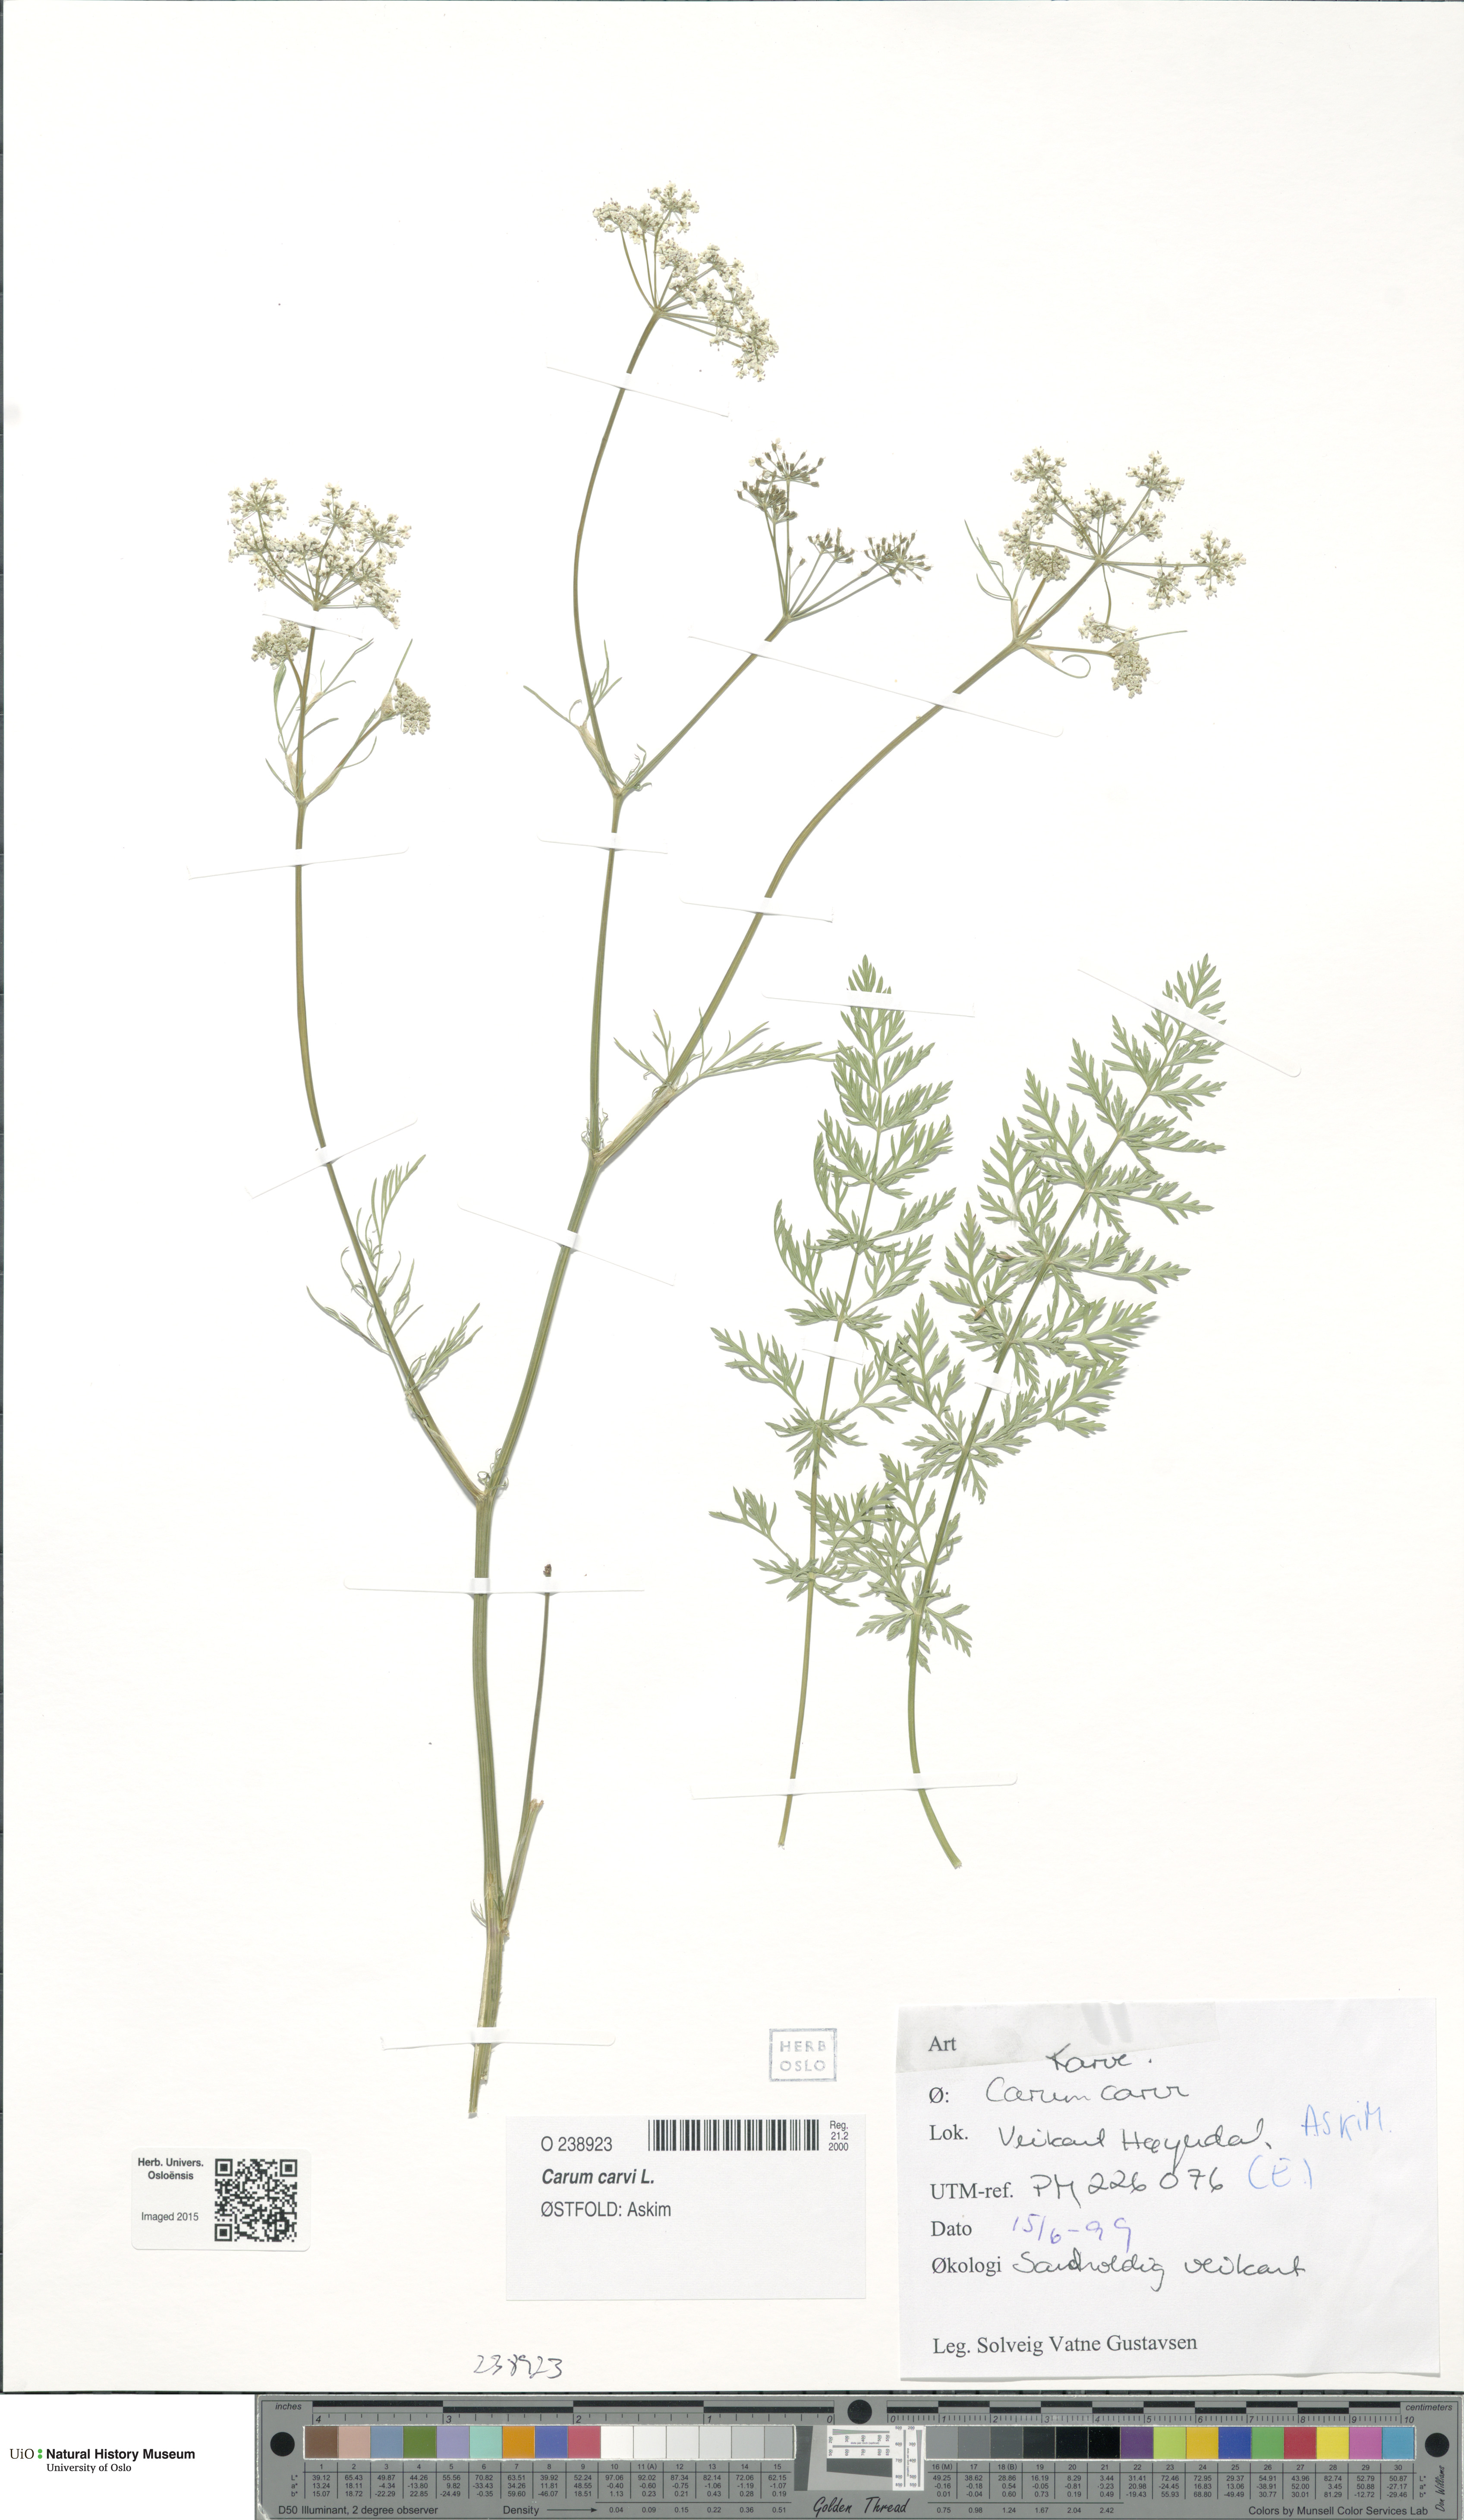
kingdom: Plantae
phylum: Tracheophyta
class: Magnoliopsida
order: Apiales
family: Apiaceae
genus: Carum
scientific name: Carum carvi
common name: Caraway
